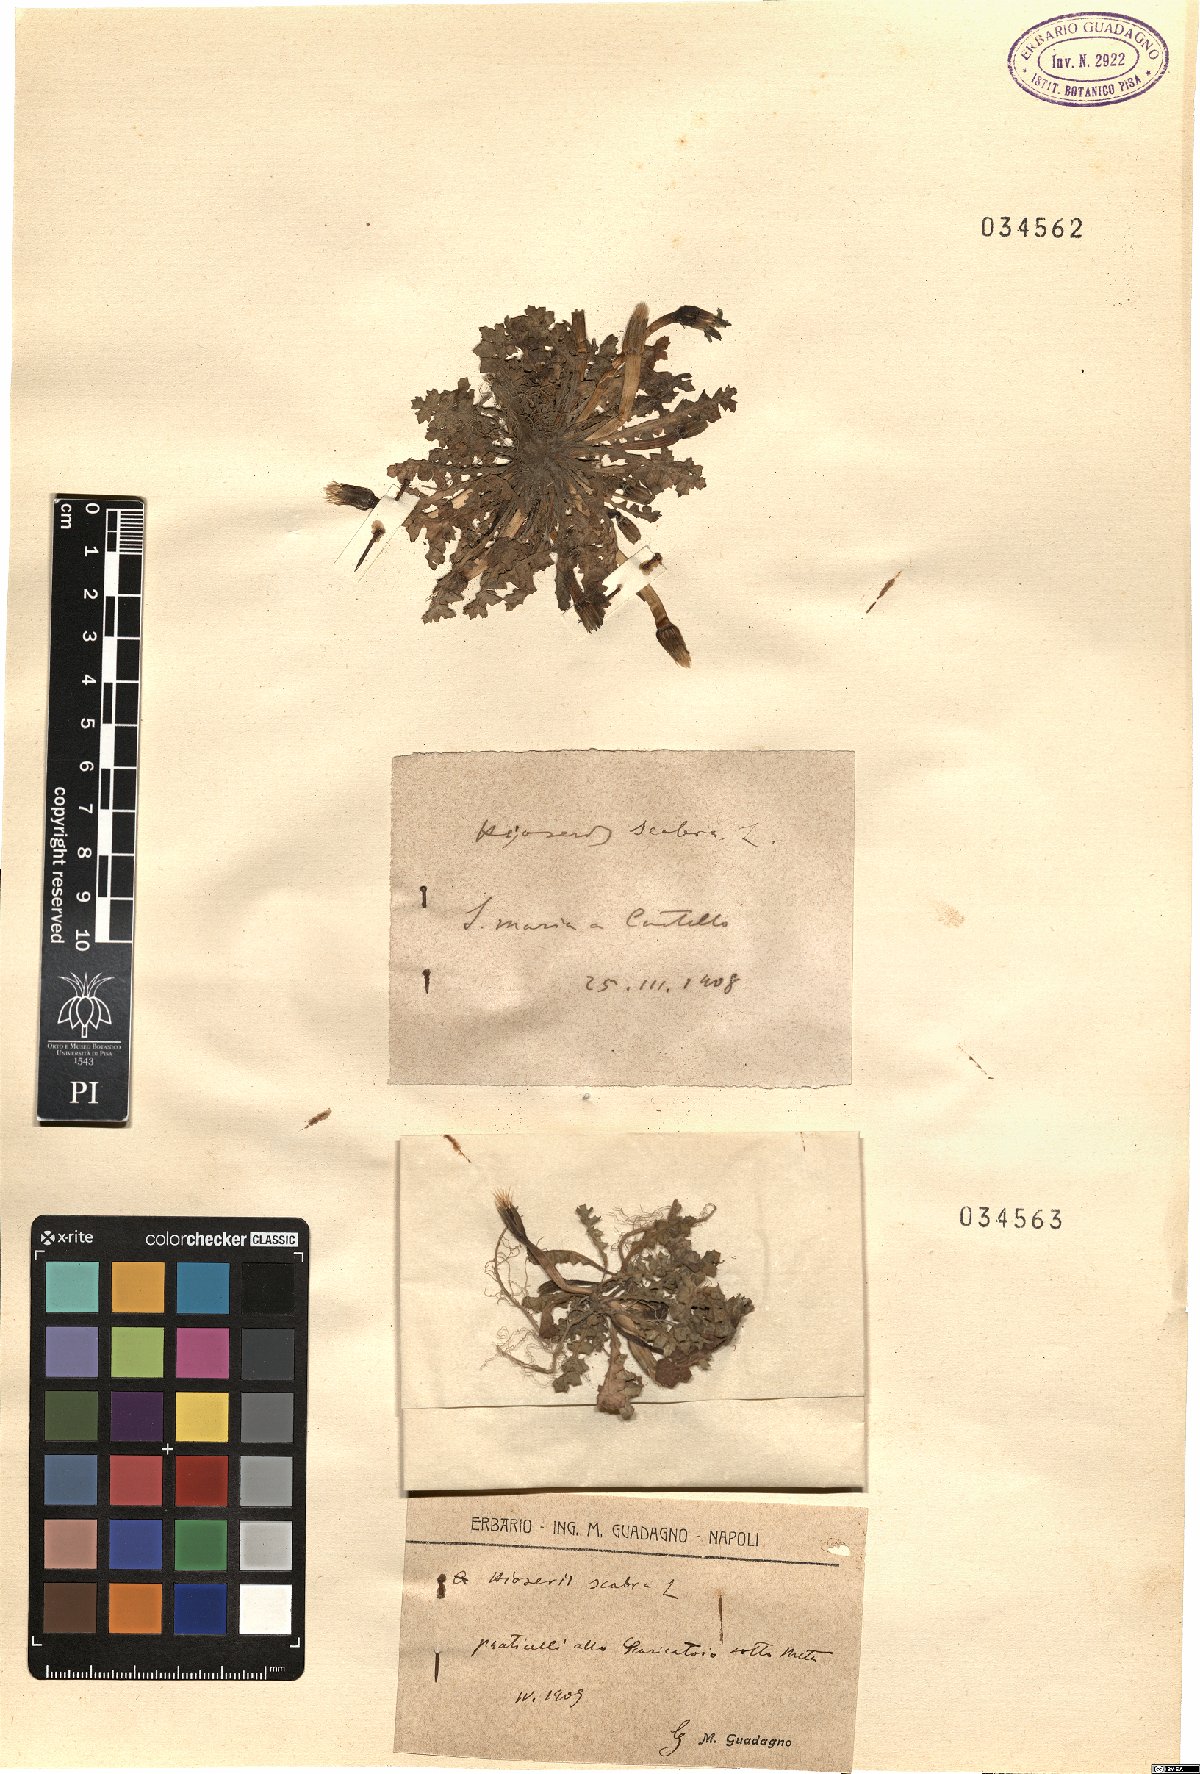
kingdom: Plantae
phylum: Tracheophyta
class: Magnoliopsida
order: Asterales
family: Asteraceae
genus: Hyoseris
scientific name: Hyoseris scabra
